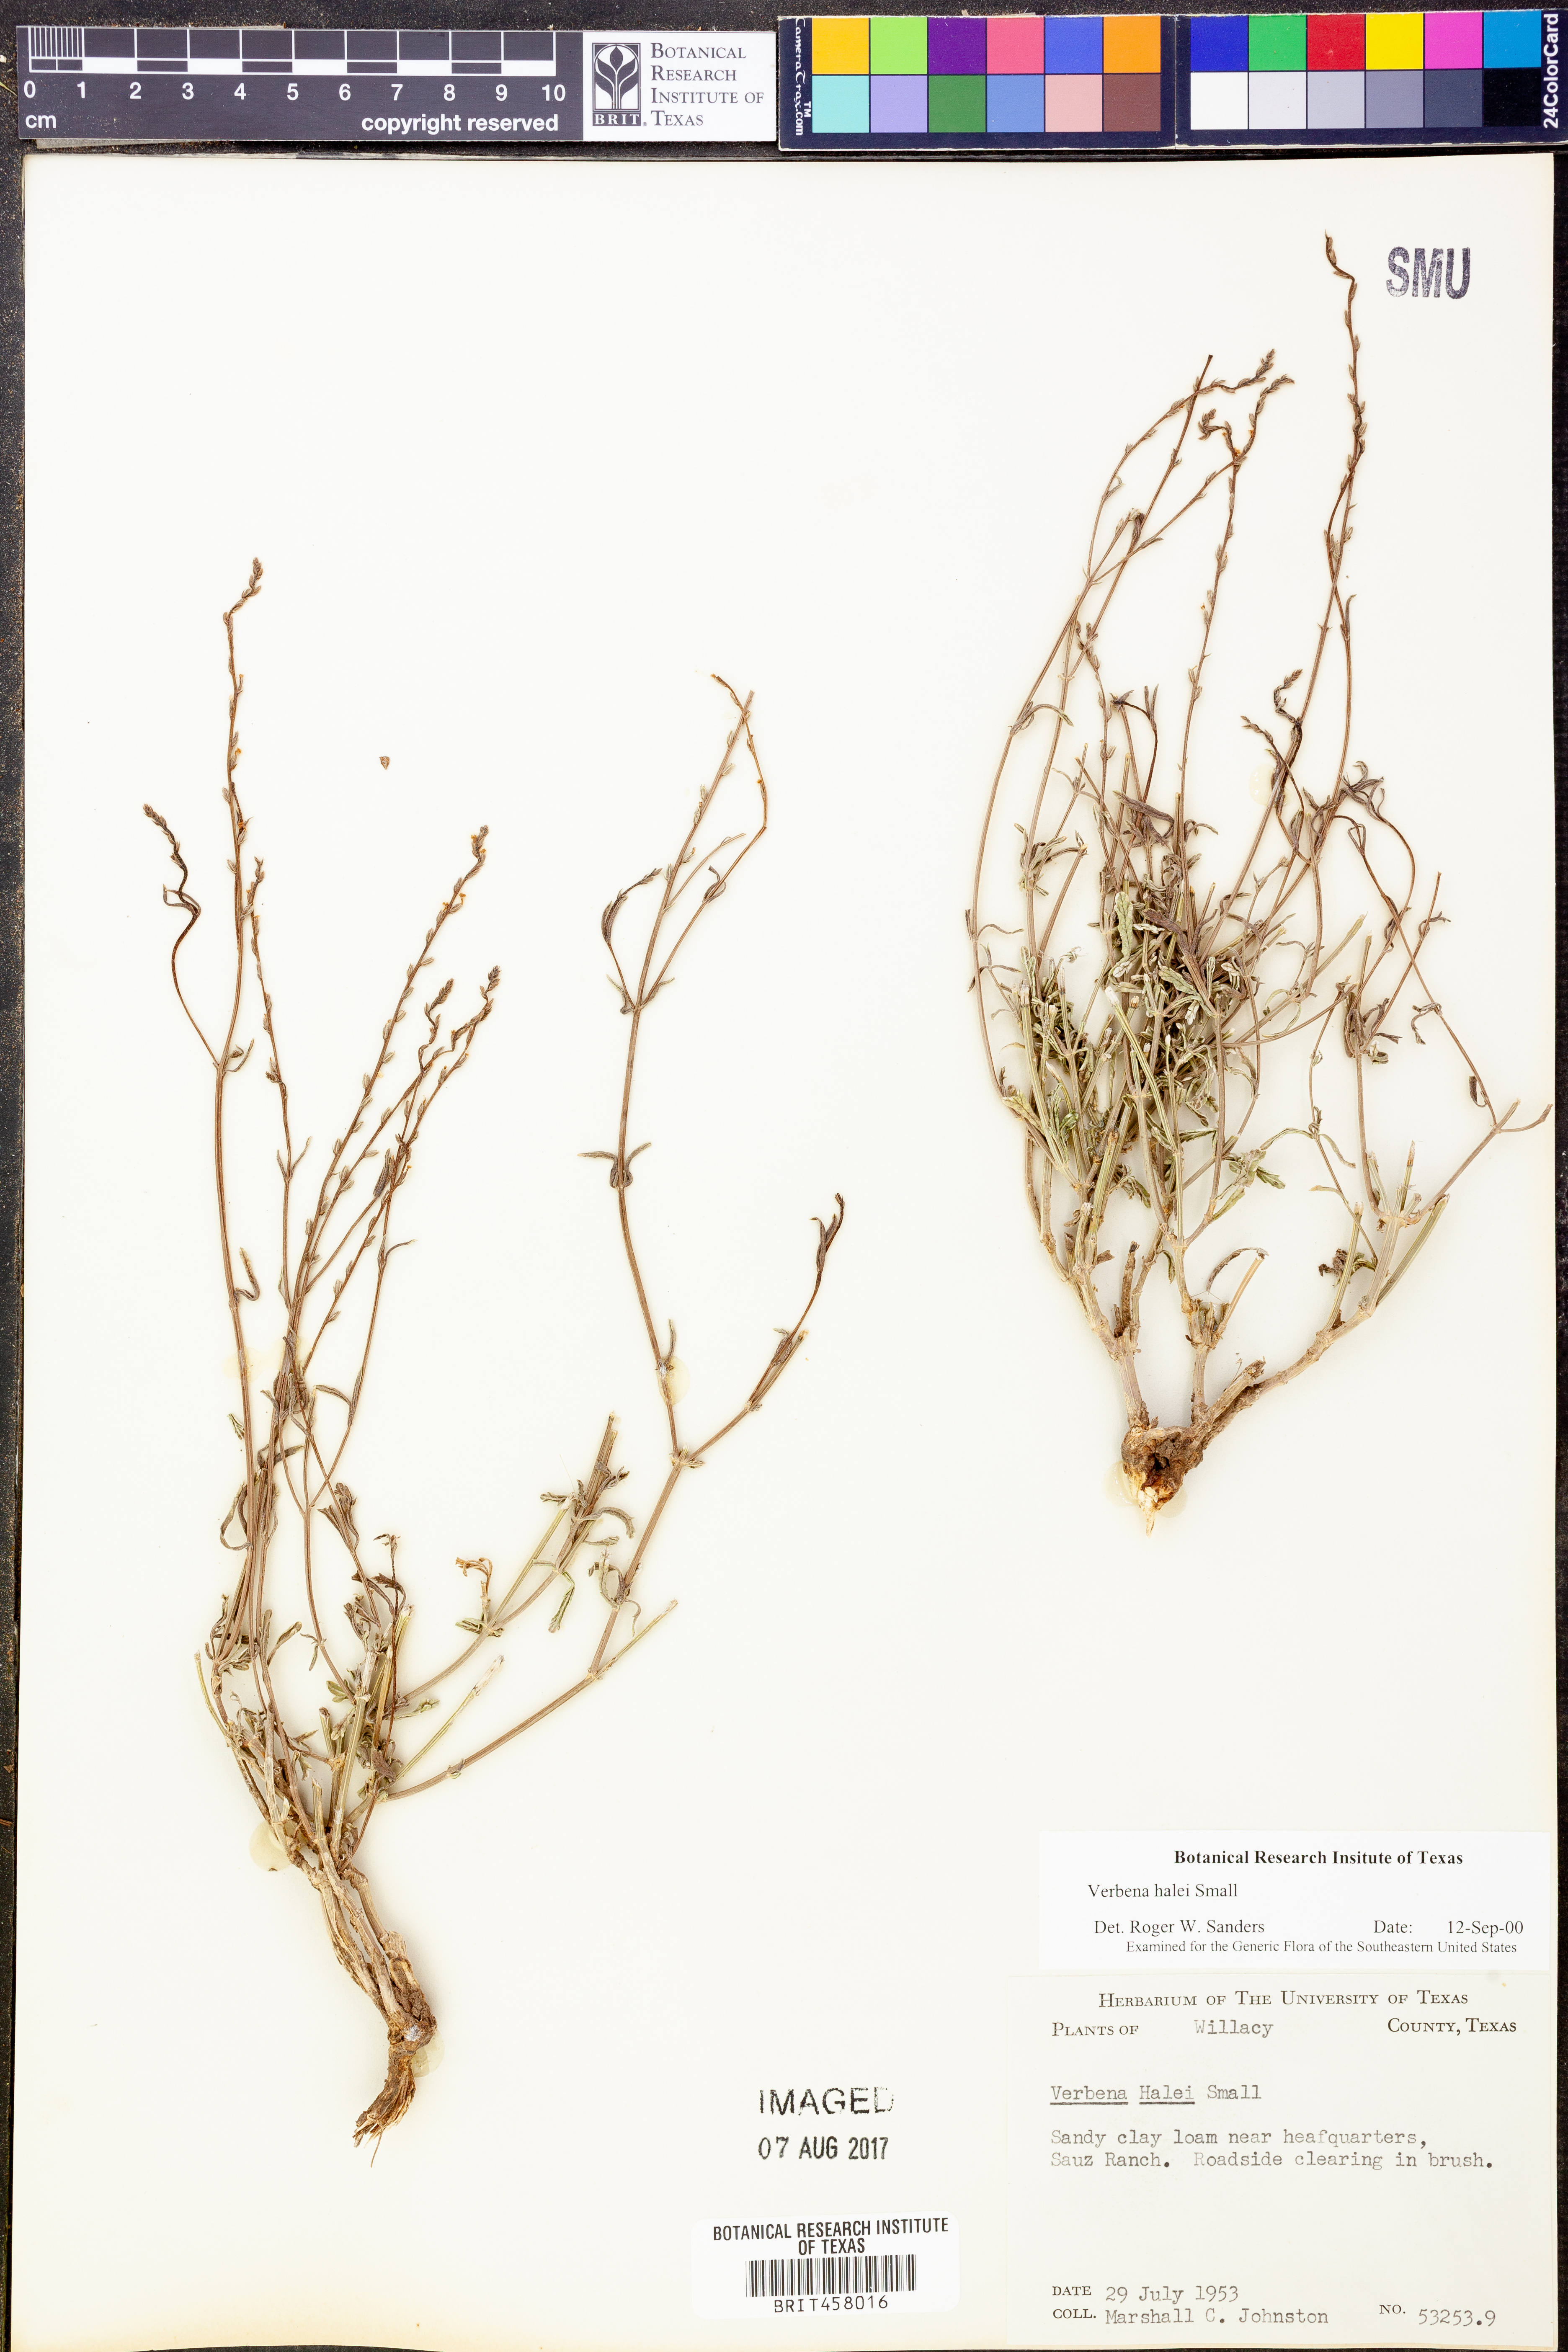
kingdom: Plantae
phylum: Tracheophyta
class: Magnoliopsida
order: Lamiales
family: Verbenaceae
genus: Verbena
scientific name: Verbena halei
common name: Texas vervain
